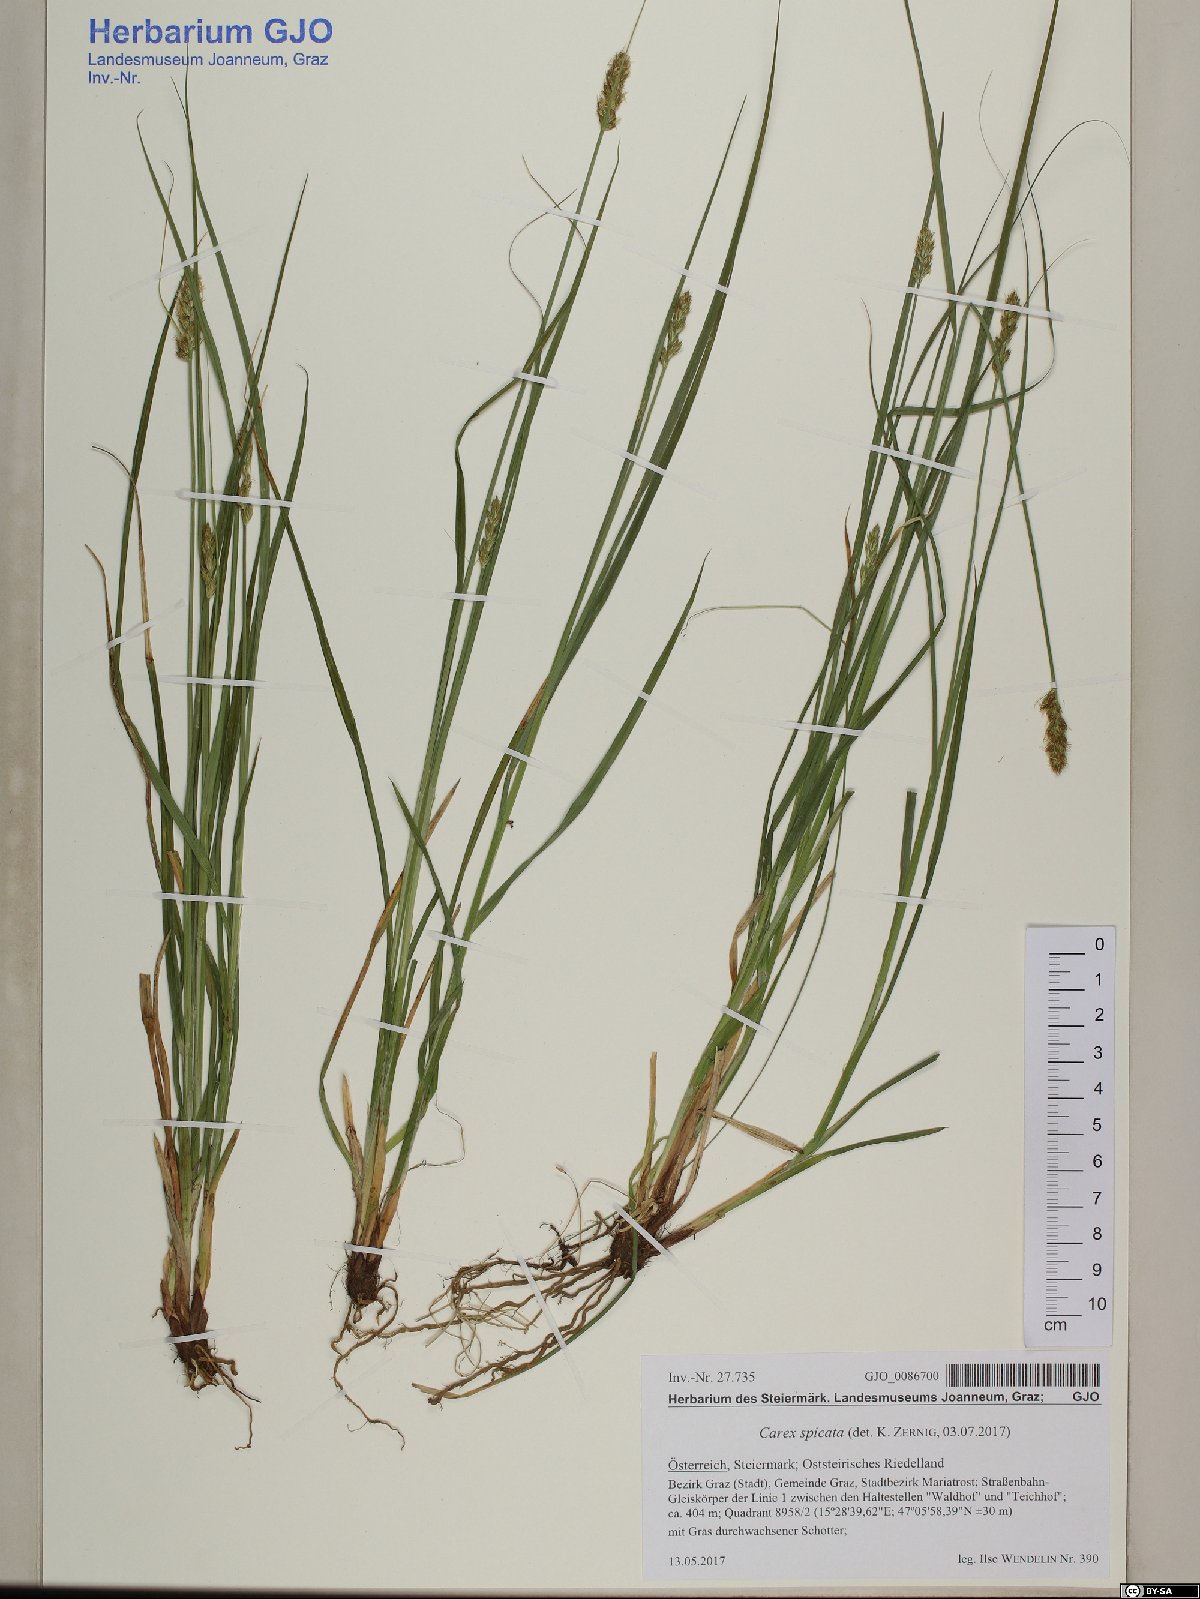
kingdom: Plantae
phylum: Tracheophyta
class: Liliopsida
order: Poales
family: Cyperaceae
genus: Carex
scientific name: Carex spicata
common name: Spiked sedge
